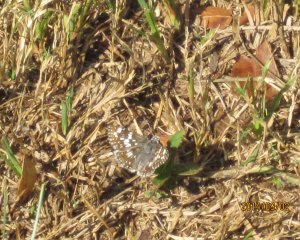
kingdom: Animalia
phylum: Arthropoda
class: Insecta
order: Lepidoptera
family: Hesperiidae
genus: Pyrgus
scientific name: Pyrgus communis
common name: Common Checkered-Skipper
